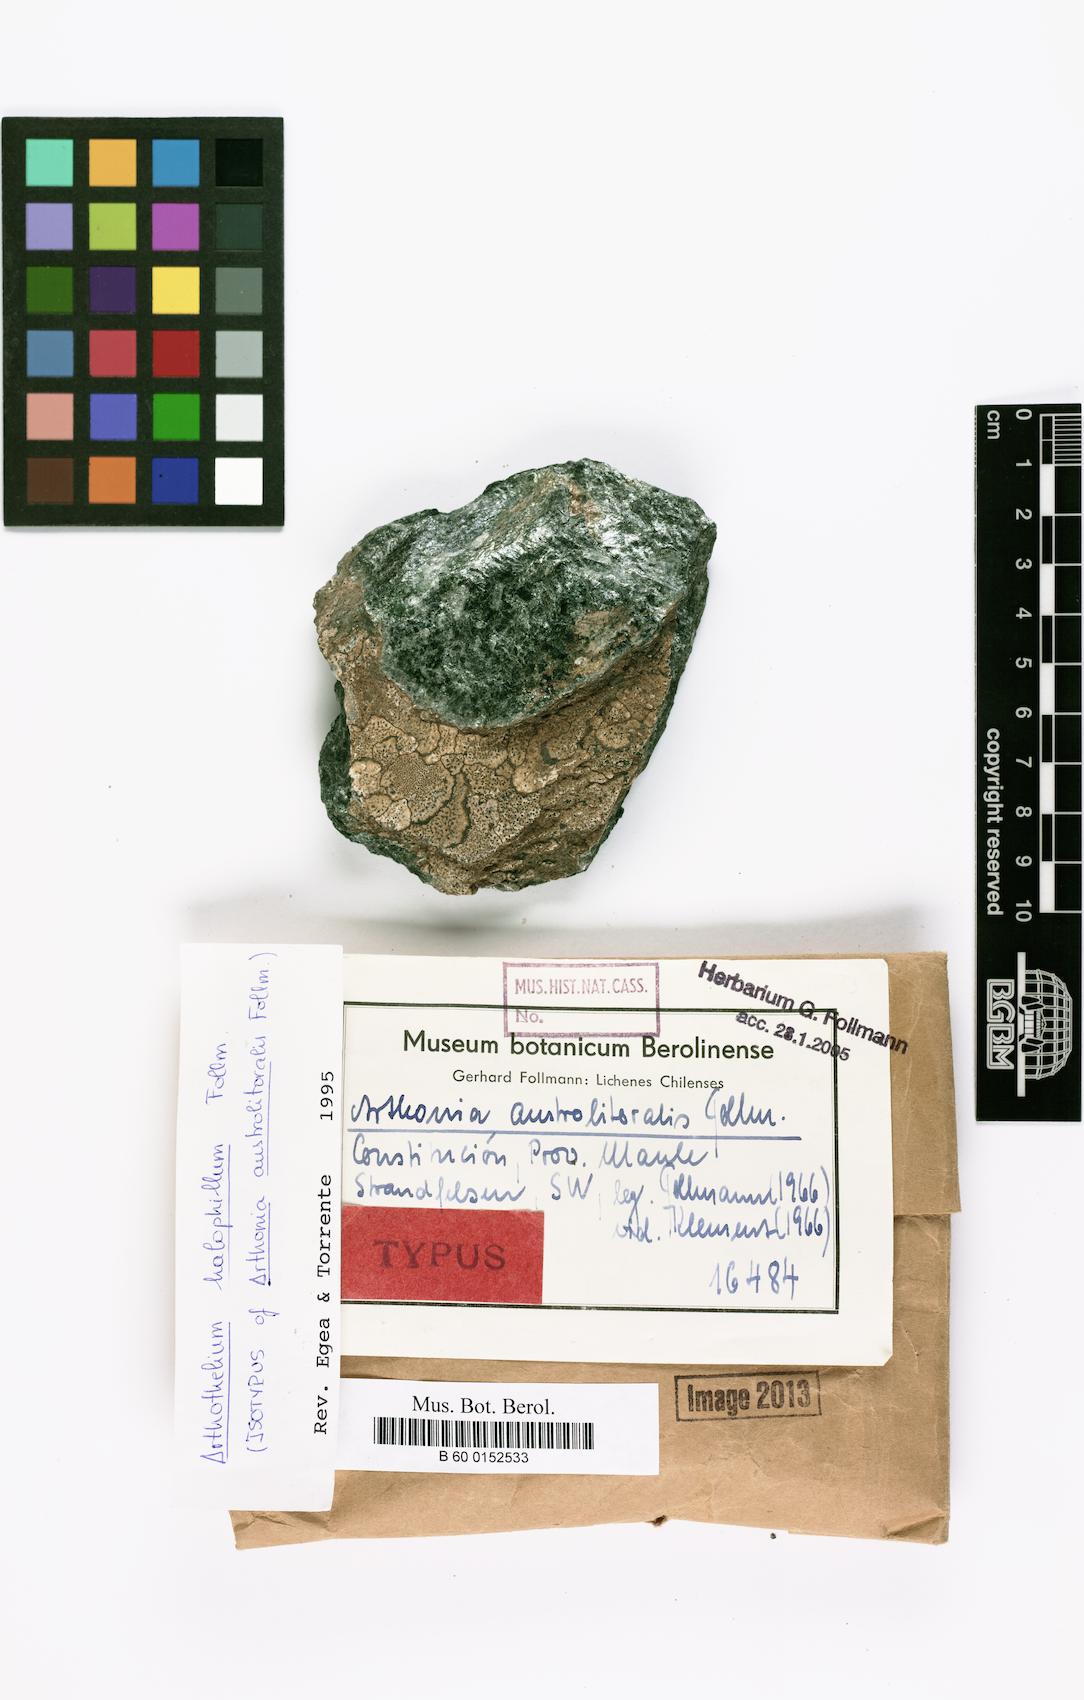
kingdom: Fungi
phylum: Ascomycota
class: Arthoniomycetes
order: Arthoniales
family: Arthoniaceae
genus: Arthonia
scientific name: Arthonia
